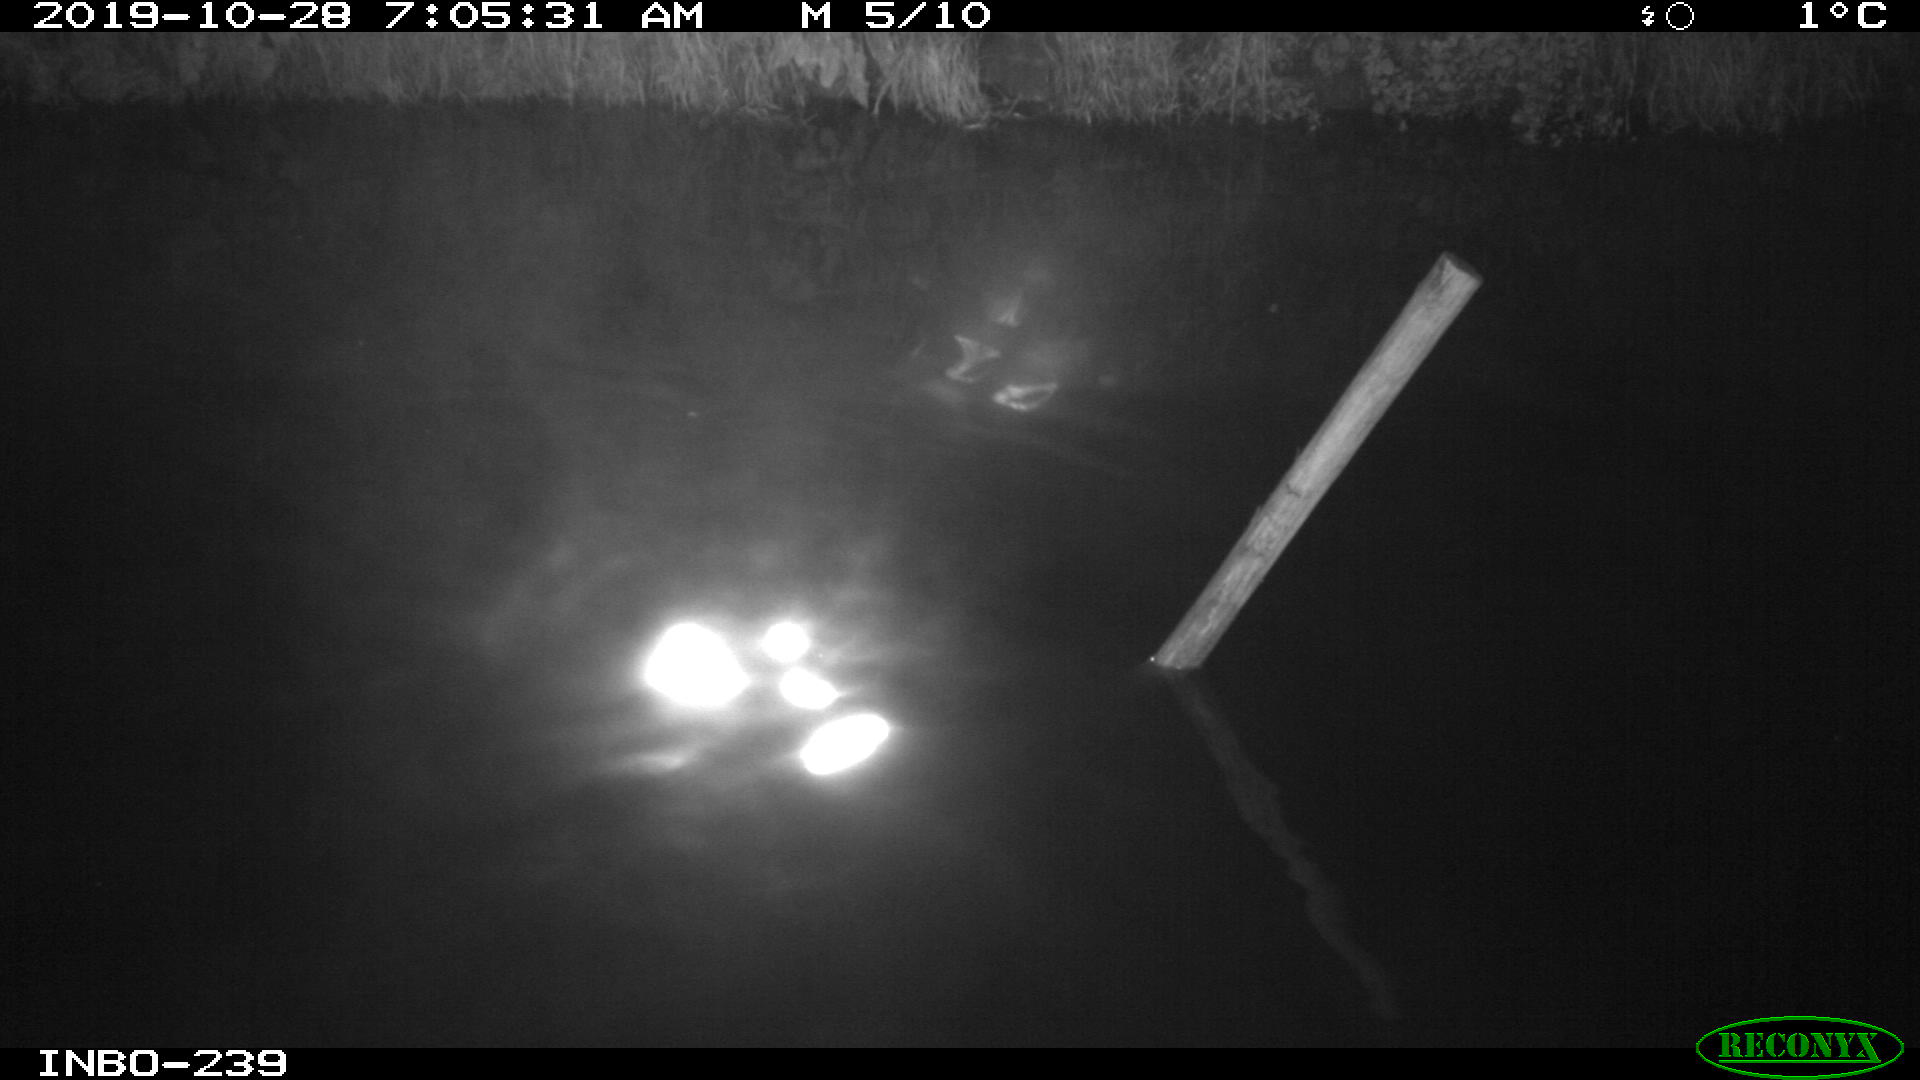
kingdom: Animalia
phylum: Chordata
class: Aves
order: Anseriformes
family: Anatidae
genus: Anas
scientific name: Anas platyrhynchos
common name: Mallard
